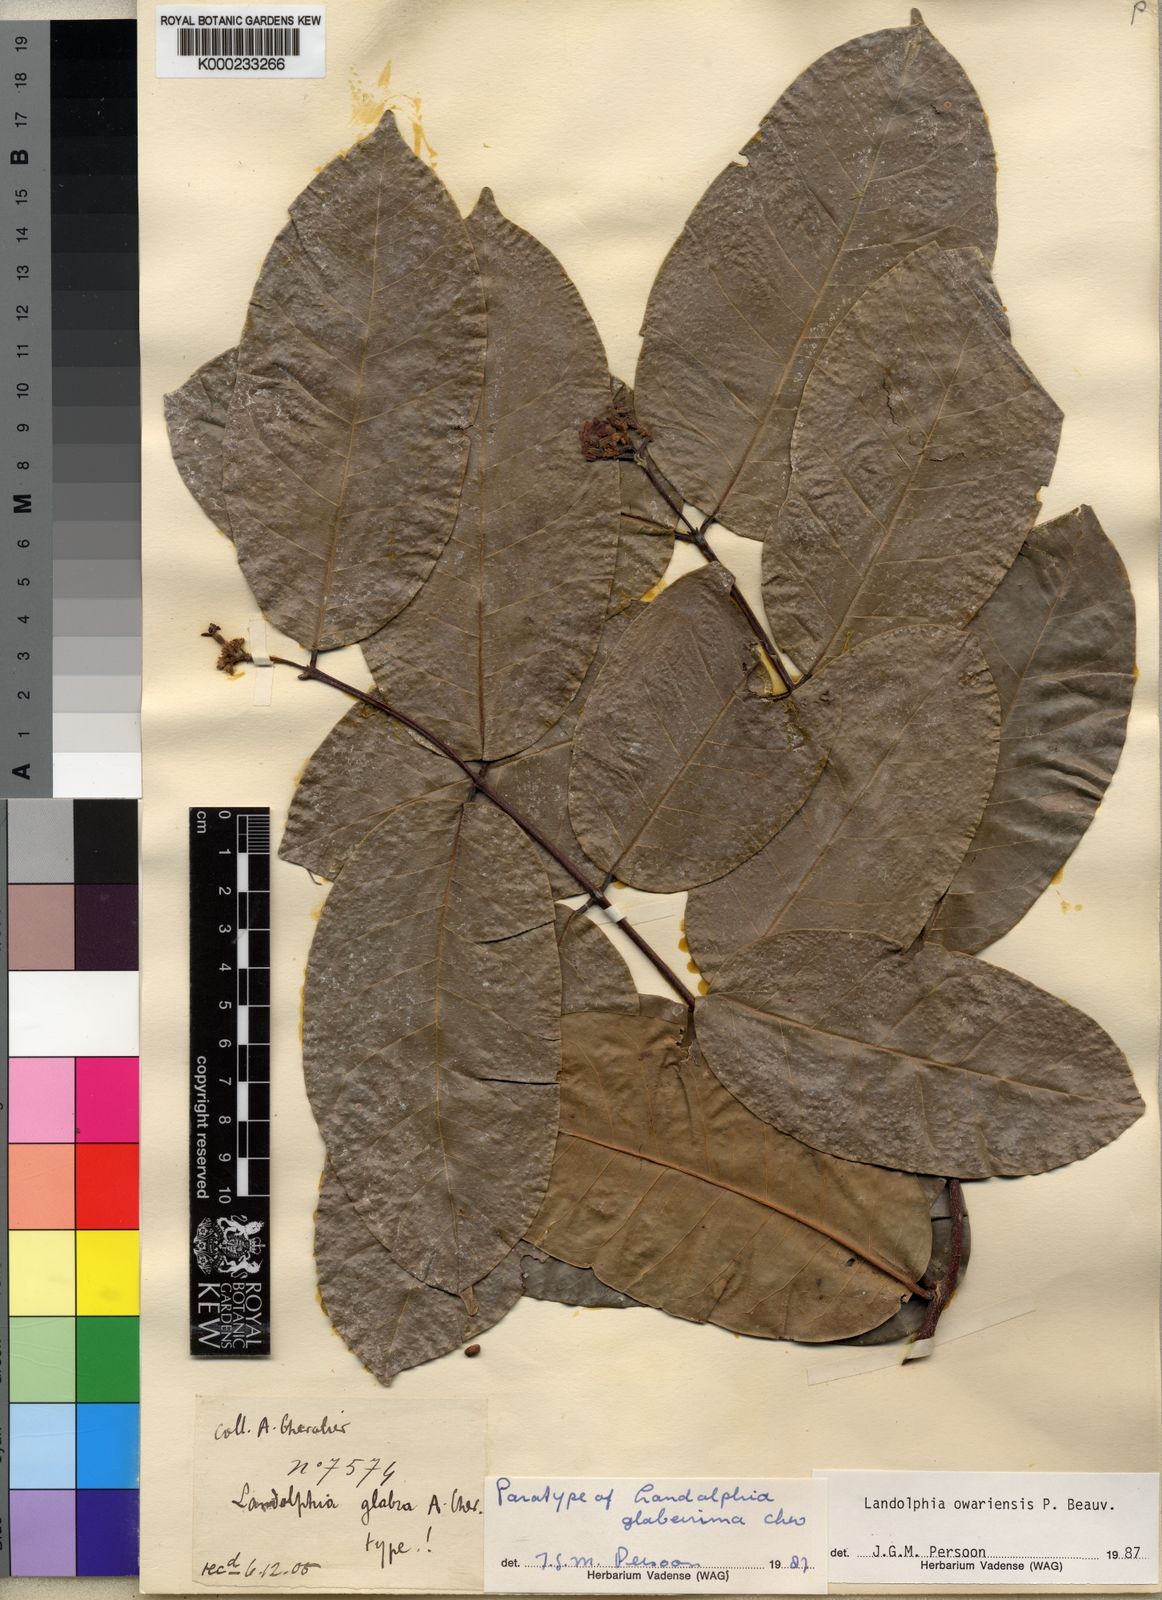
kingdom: Plantae
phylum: Tracheophyta
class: Magnoliopsida
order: Gentianales
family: Apocynaceae
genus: Landolphia
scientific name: Landolphia owariensis
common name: White-ball-rubber
